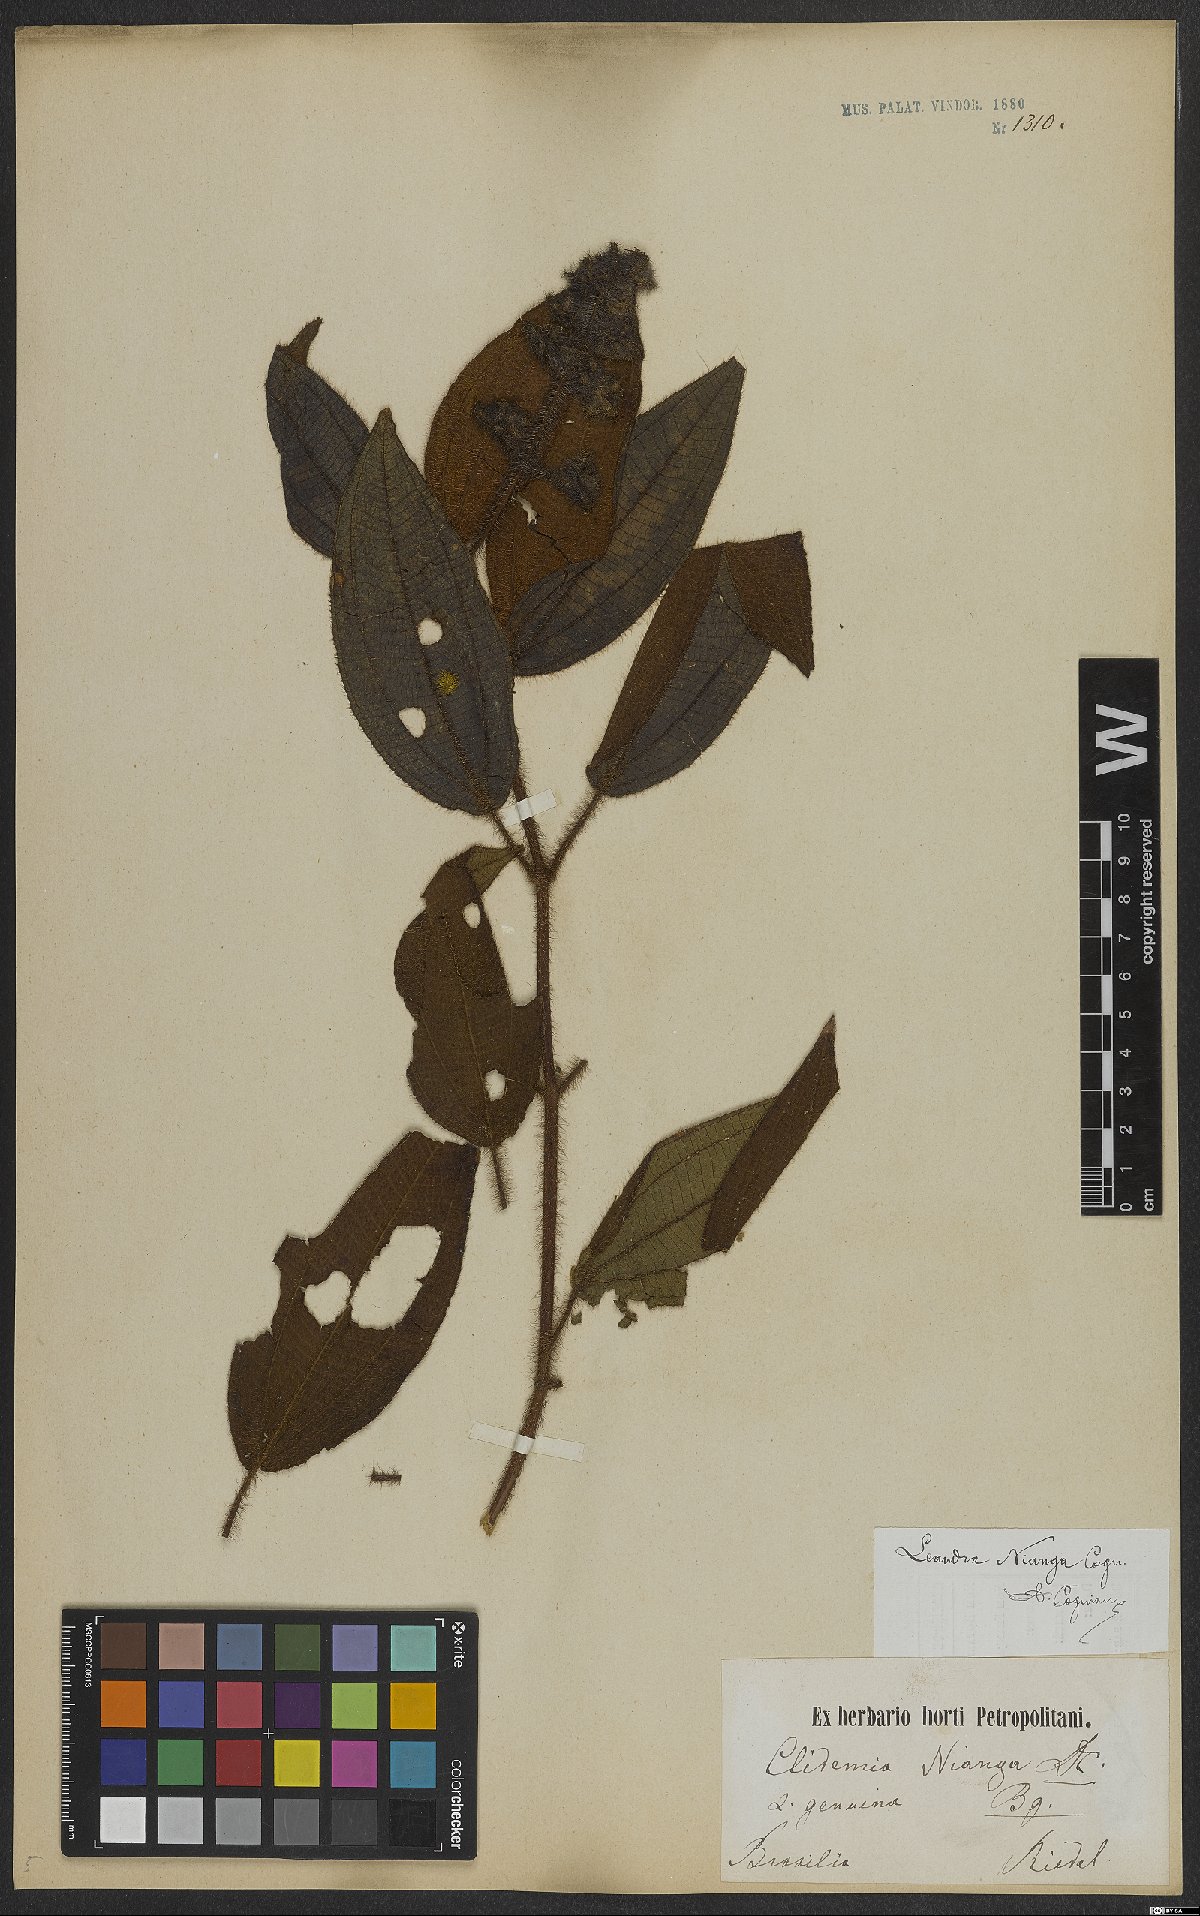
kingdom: Plantae
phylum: Tracheophyta
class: Magnoliopsida
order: Myrtales
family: Melastomataceae
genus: Miconia
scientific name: Miconia nianga
